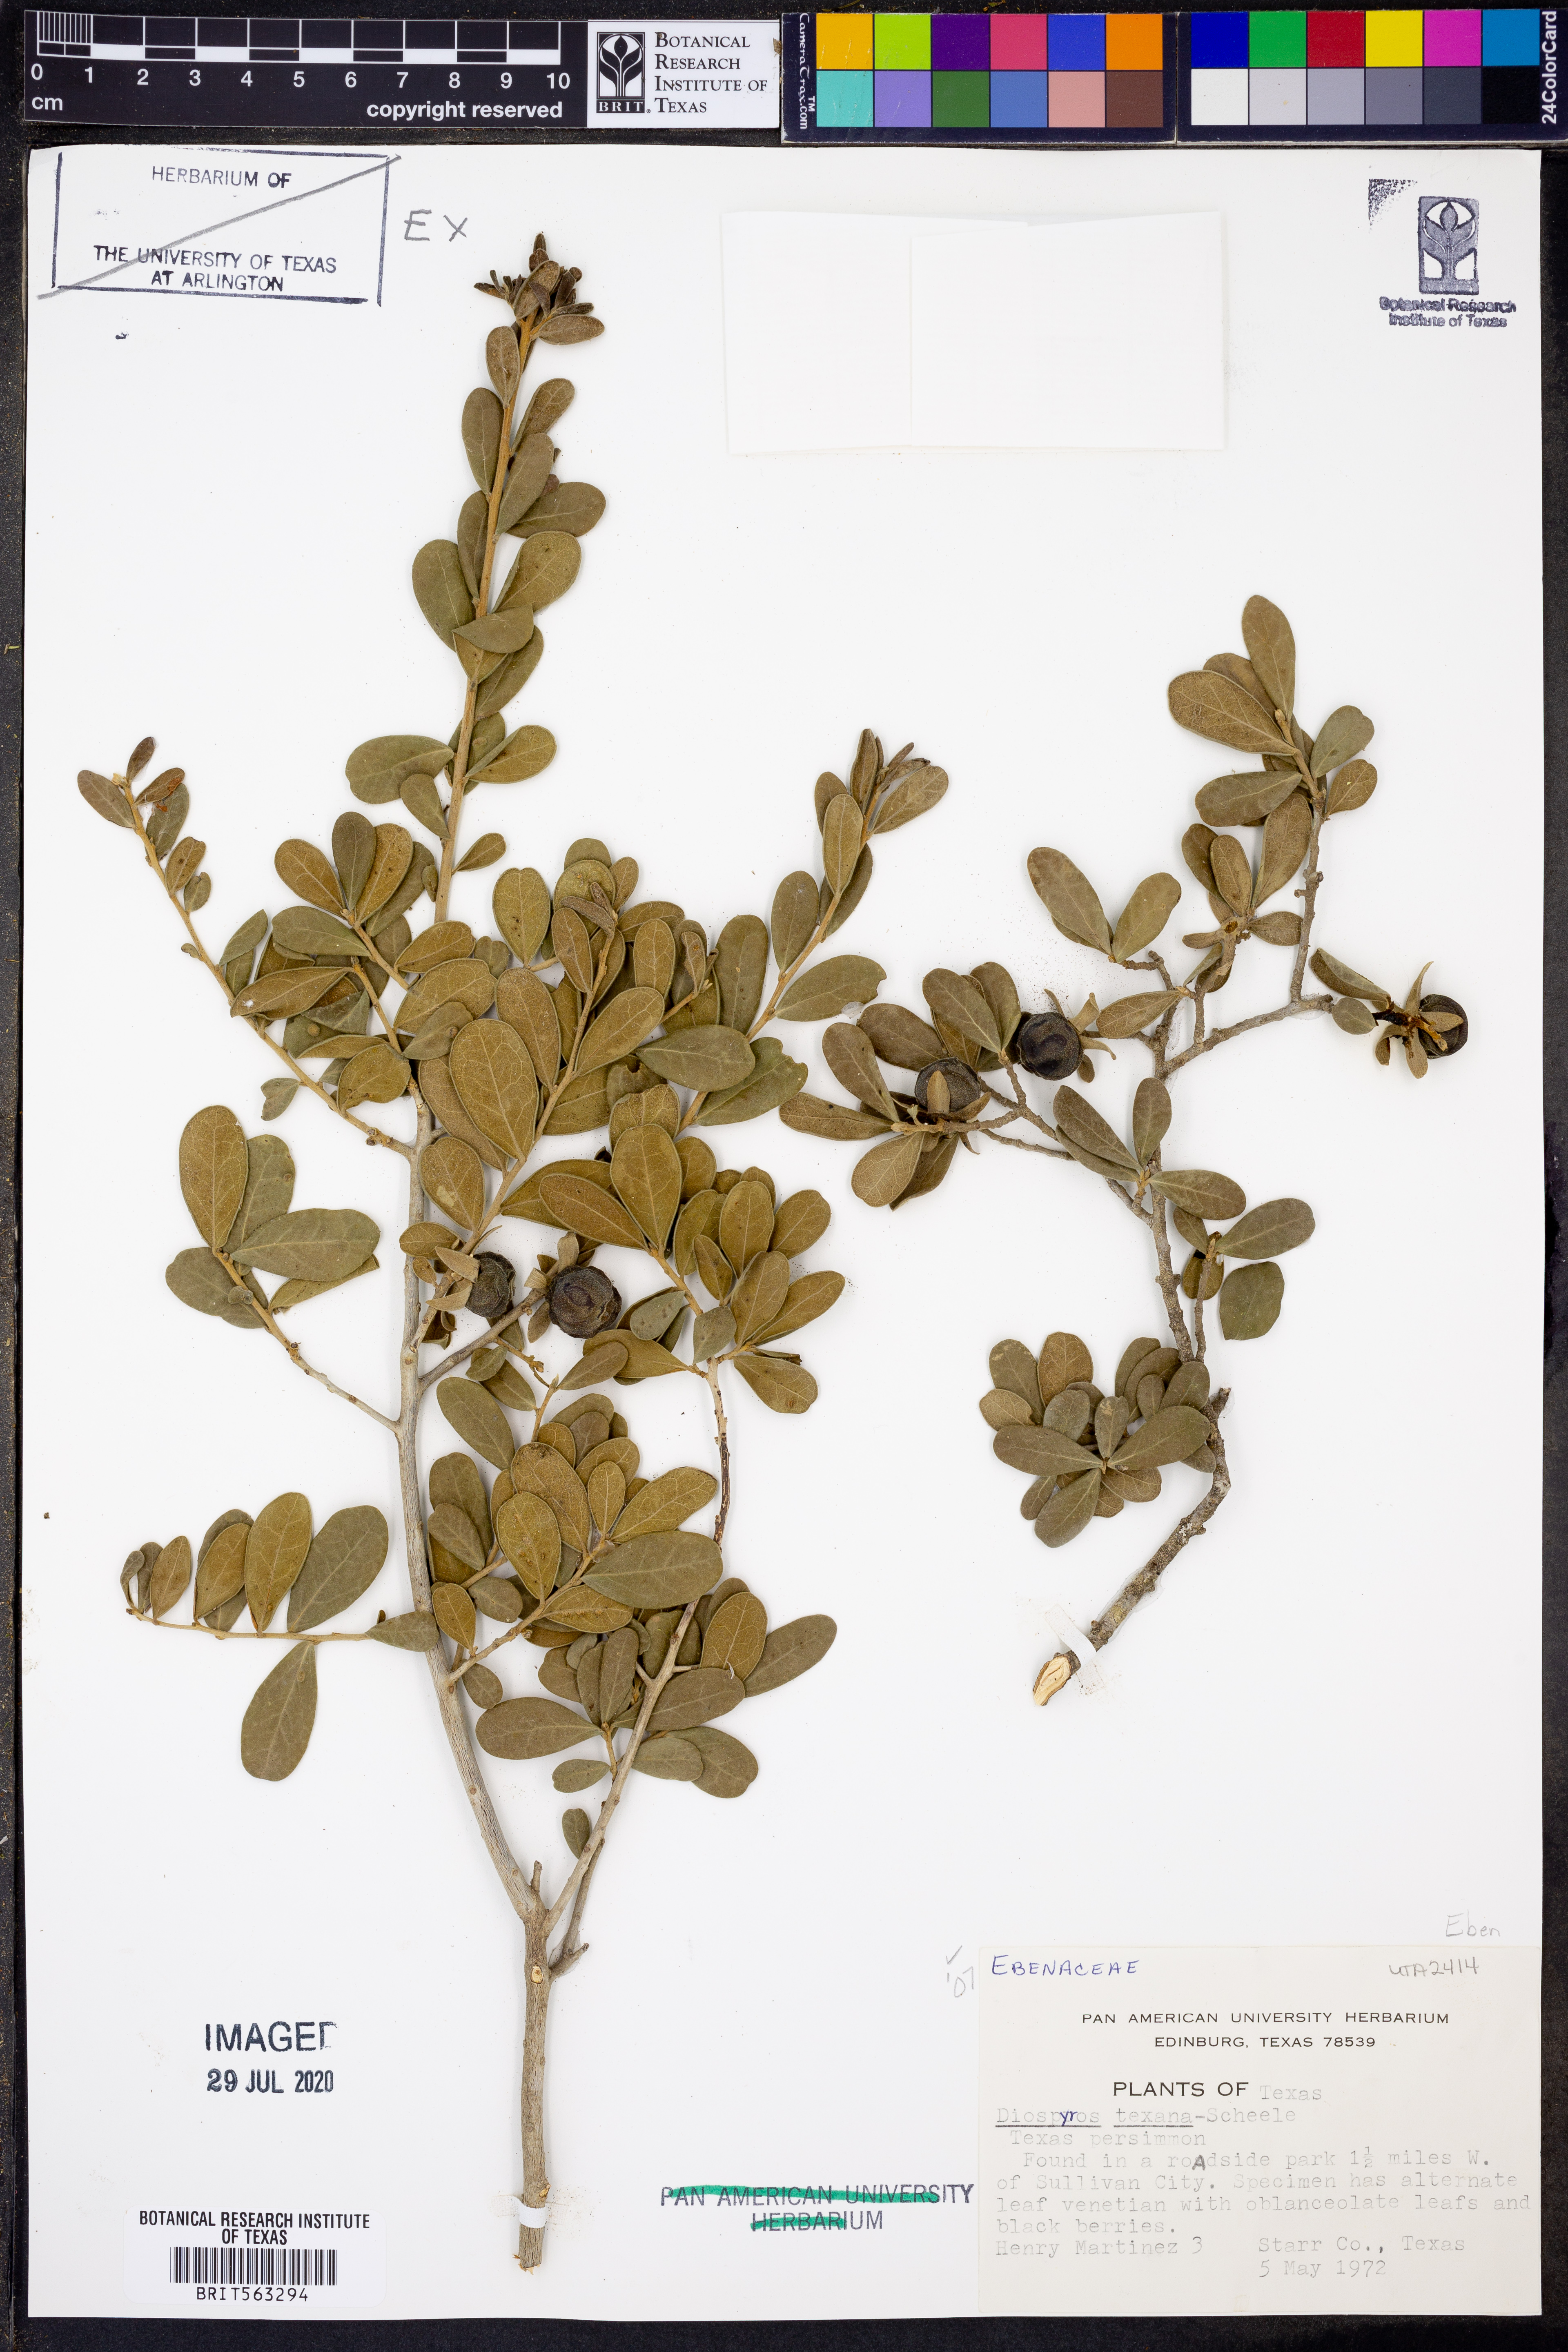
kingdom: Plantae
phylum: Tracheophyta
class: Magnoliopsida
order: Ericales
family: Ebenaceae
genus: Diospyros
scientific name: Diospyros texana
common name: Texas persimmon
